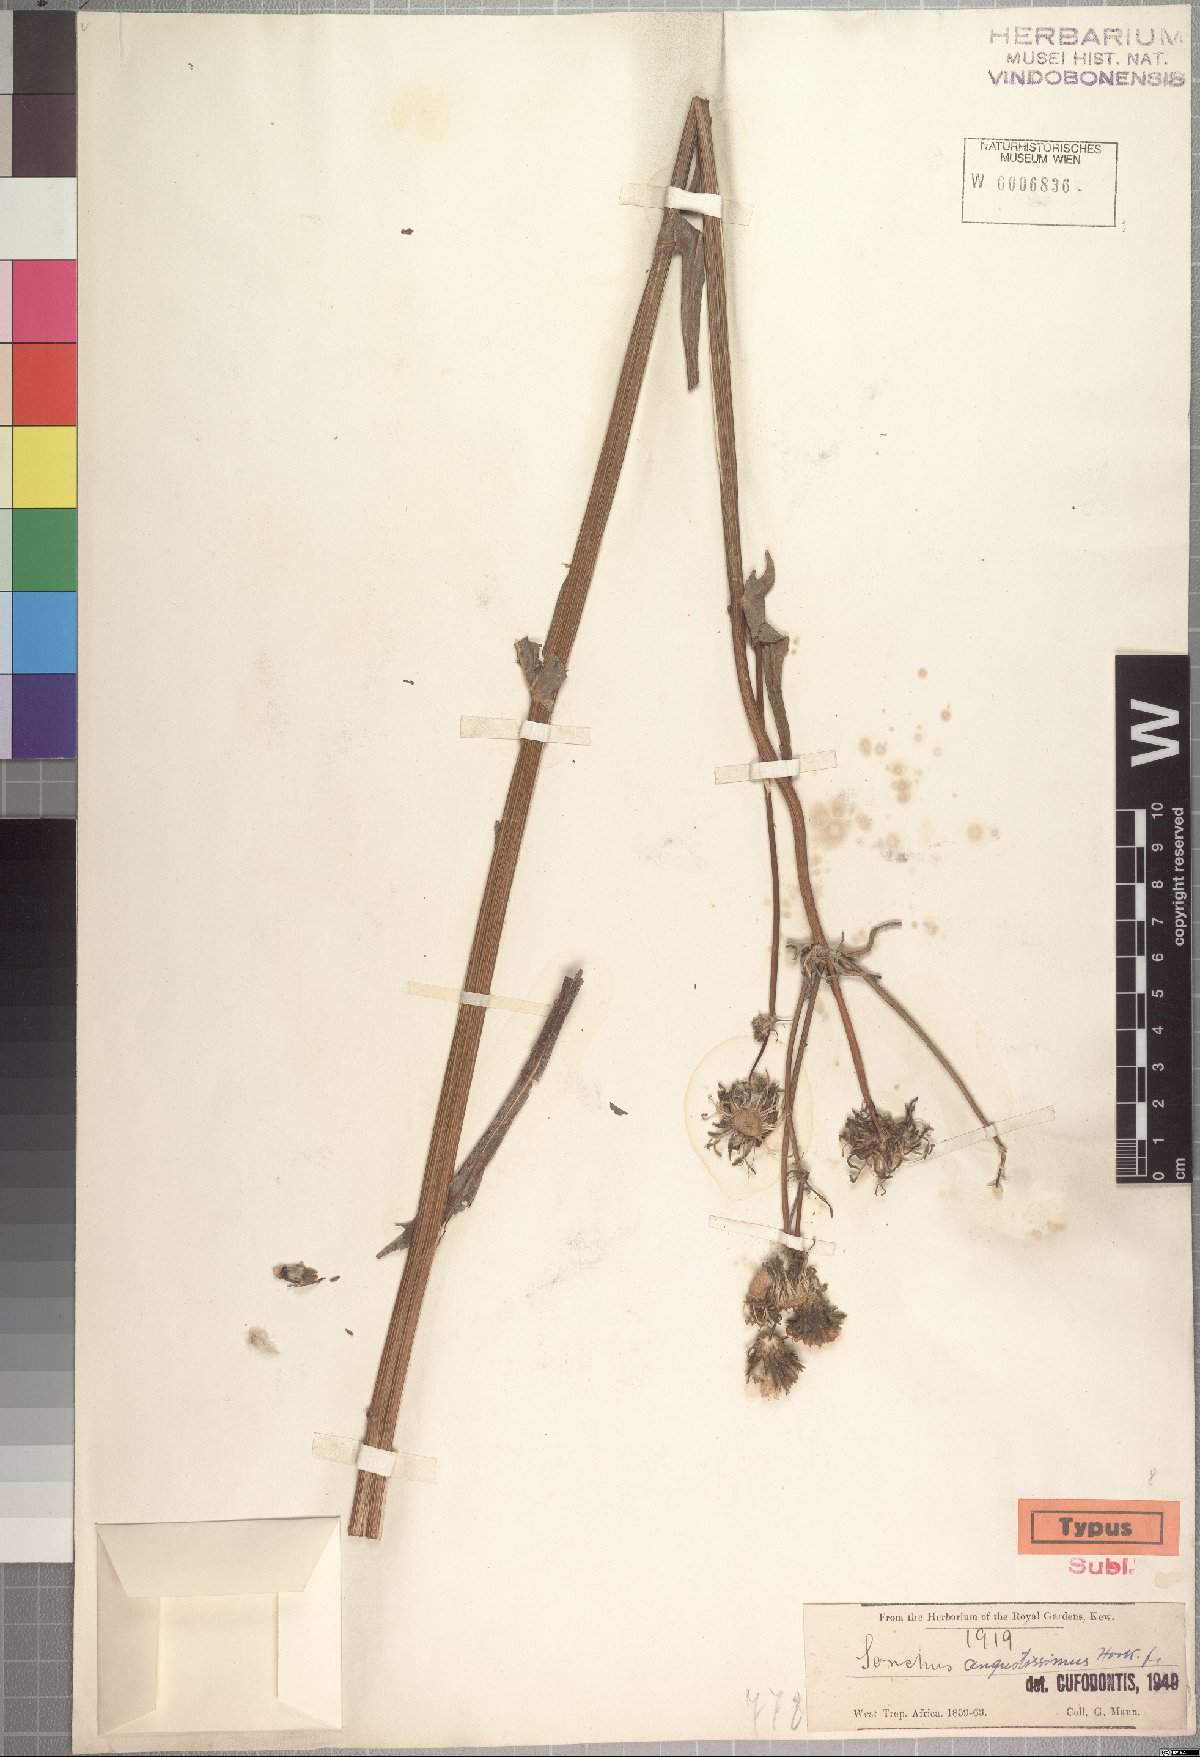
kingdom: Plantae
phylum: Tracheophyta
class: Magnoliopsida
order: Asterales
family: Asteraceae
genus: Sonchus
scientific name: Sonchus angustissimus
